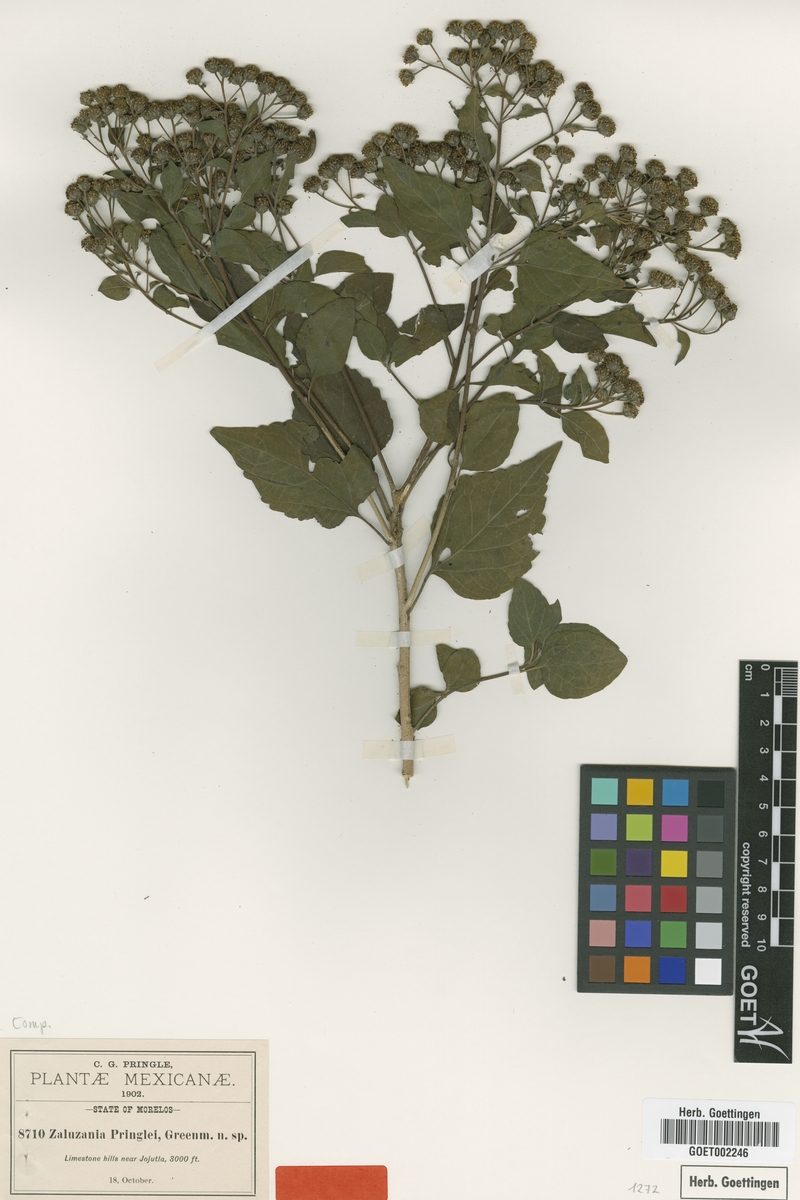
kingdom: Plantae
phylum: Tracheophyta
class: Magnoliopsida
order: Asterales
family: Asteraceae
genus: Zaluzania
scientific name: Zaluzania pringlei
